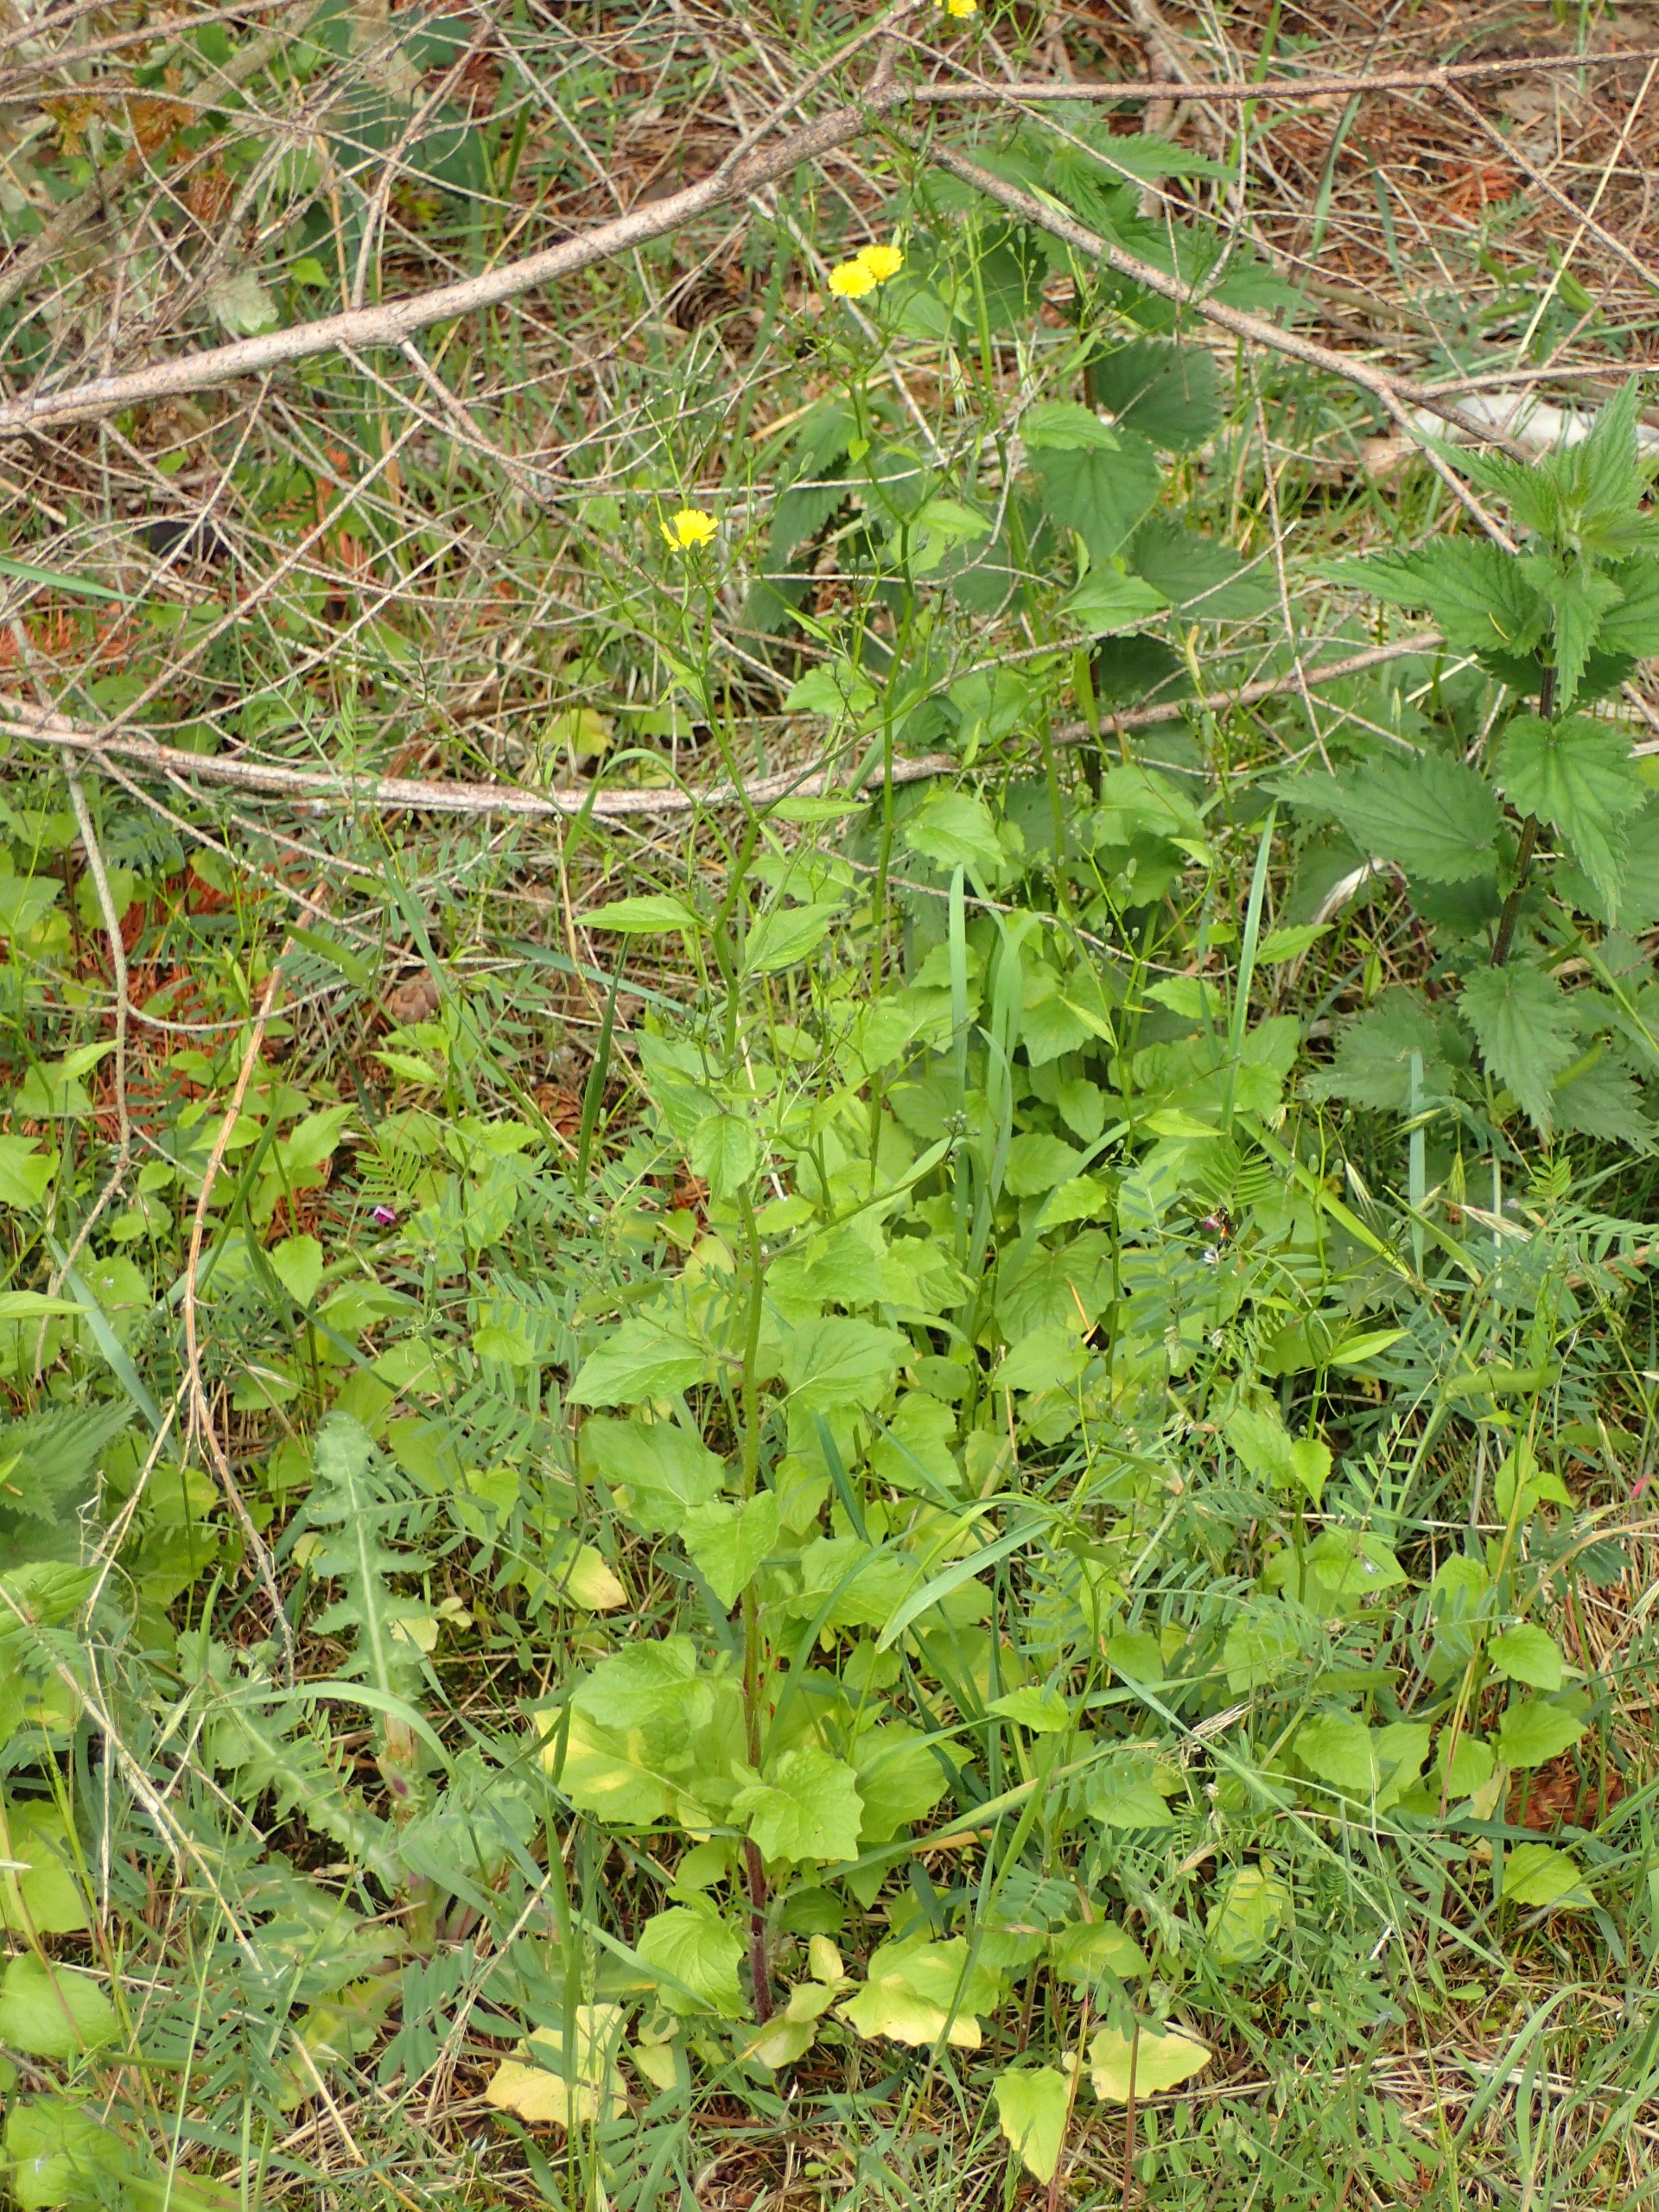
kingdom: Plantae
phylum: Tracheophyta
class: Magnoliopsida
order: Asterales
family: Asteraceae
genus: Lapsana
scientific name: Lapsana communis
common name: Haremad
